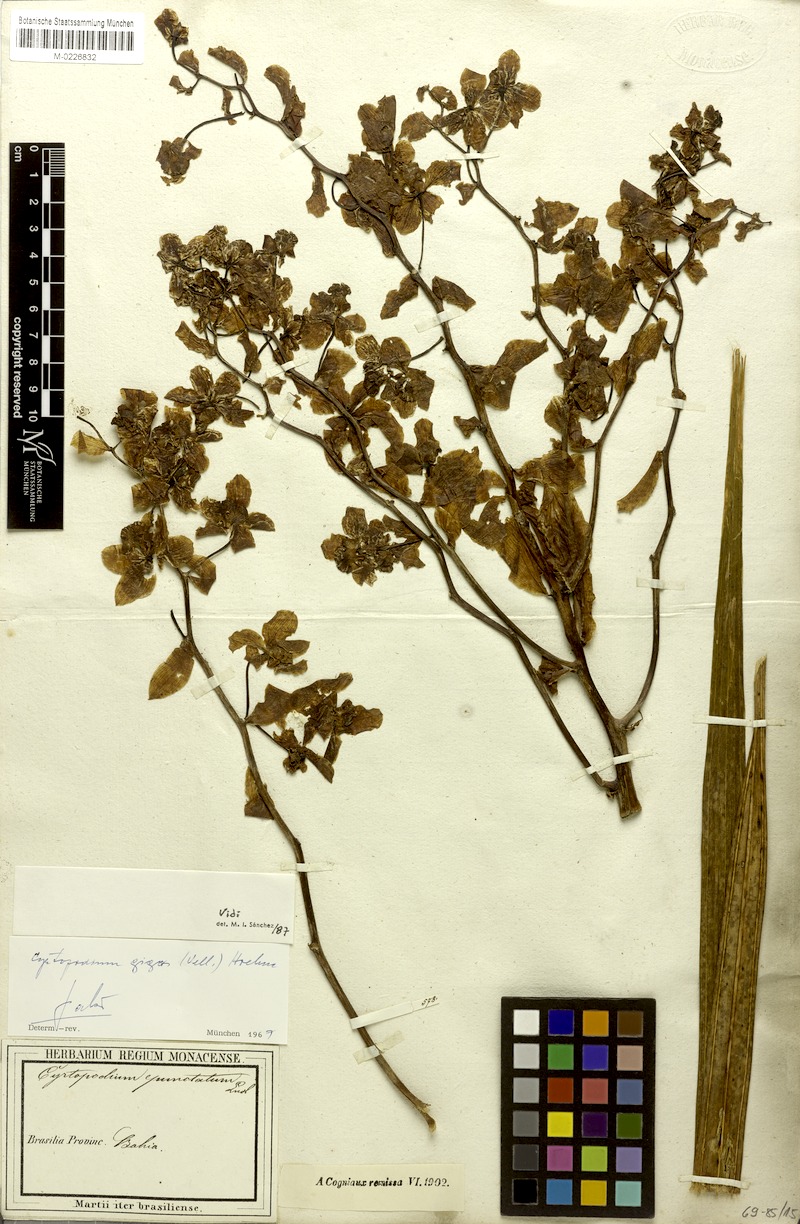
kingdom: Plantae
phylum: Tracheophyta
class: Liliopsida
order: Asparagales
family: Orchidaceae
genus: Cyrtopodium
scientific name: Cyrtopodium gigas
